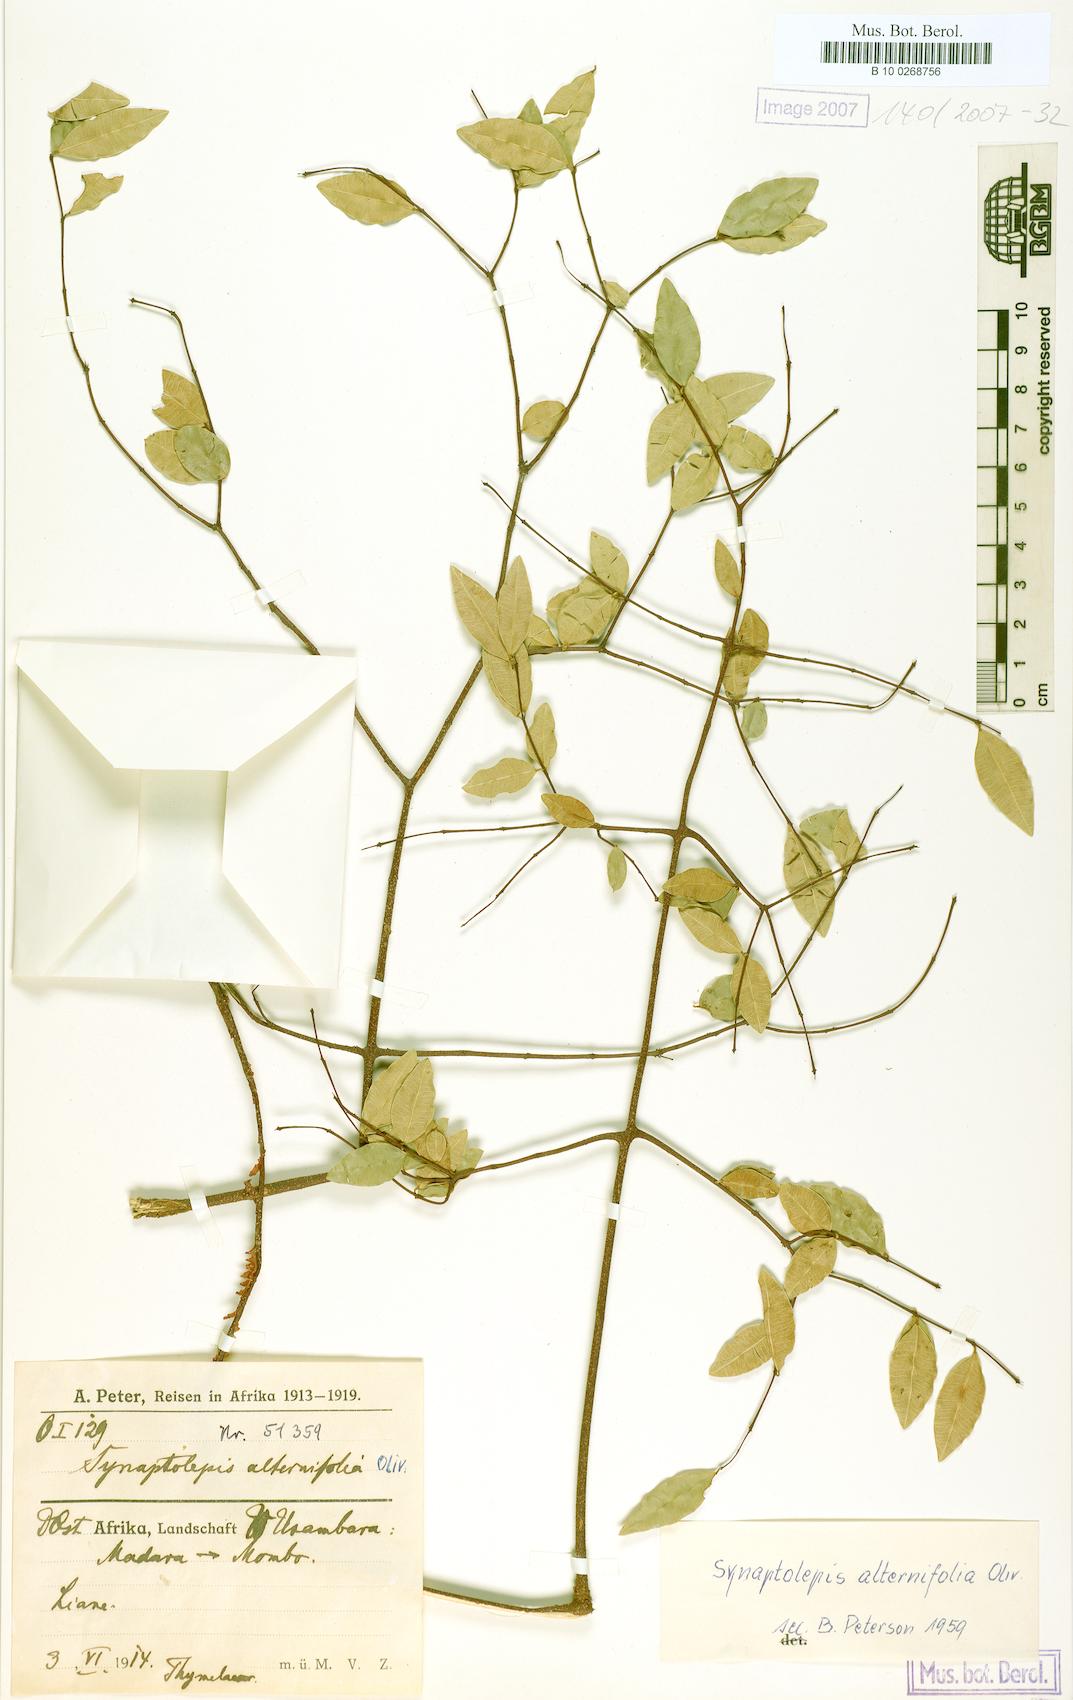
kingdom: Plantae
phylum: Tracheophyta
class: Magnoliopsida
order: Malvales
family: Thymelaeaceae
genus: Synaptolepis
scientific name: Synaptolepis alternifolia
